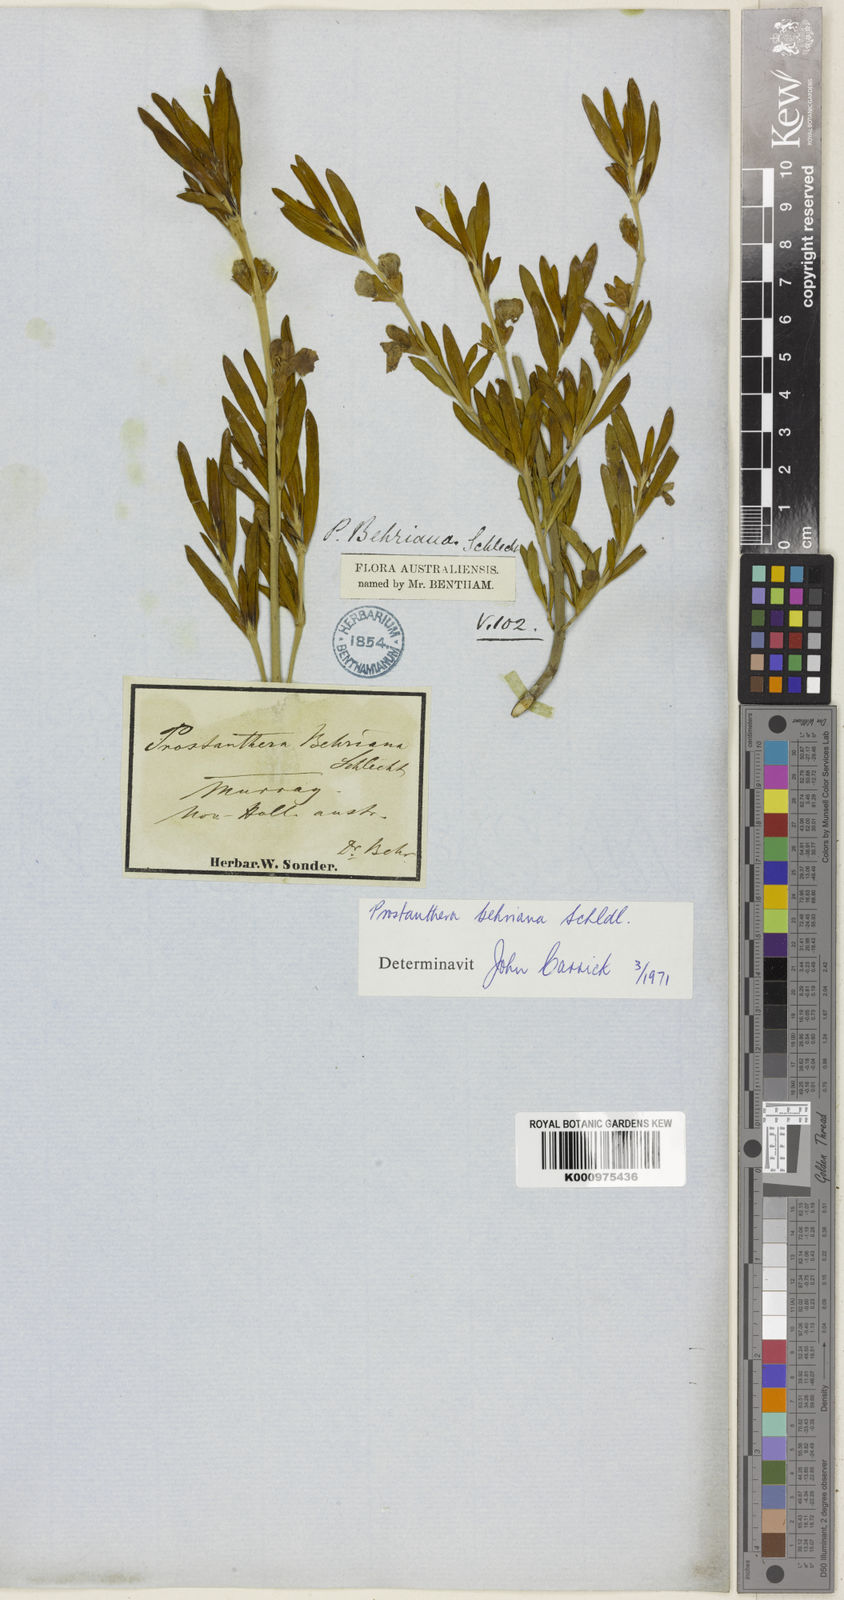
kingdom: Plantae
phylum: Tracheophyta
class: Magnoliopsida
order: Lamiales
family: Lamiaceae
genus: Prostanthera
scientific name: Prostanthera behriana
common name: Downy mintbush
